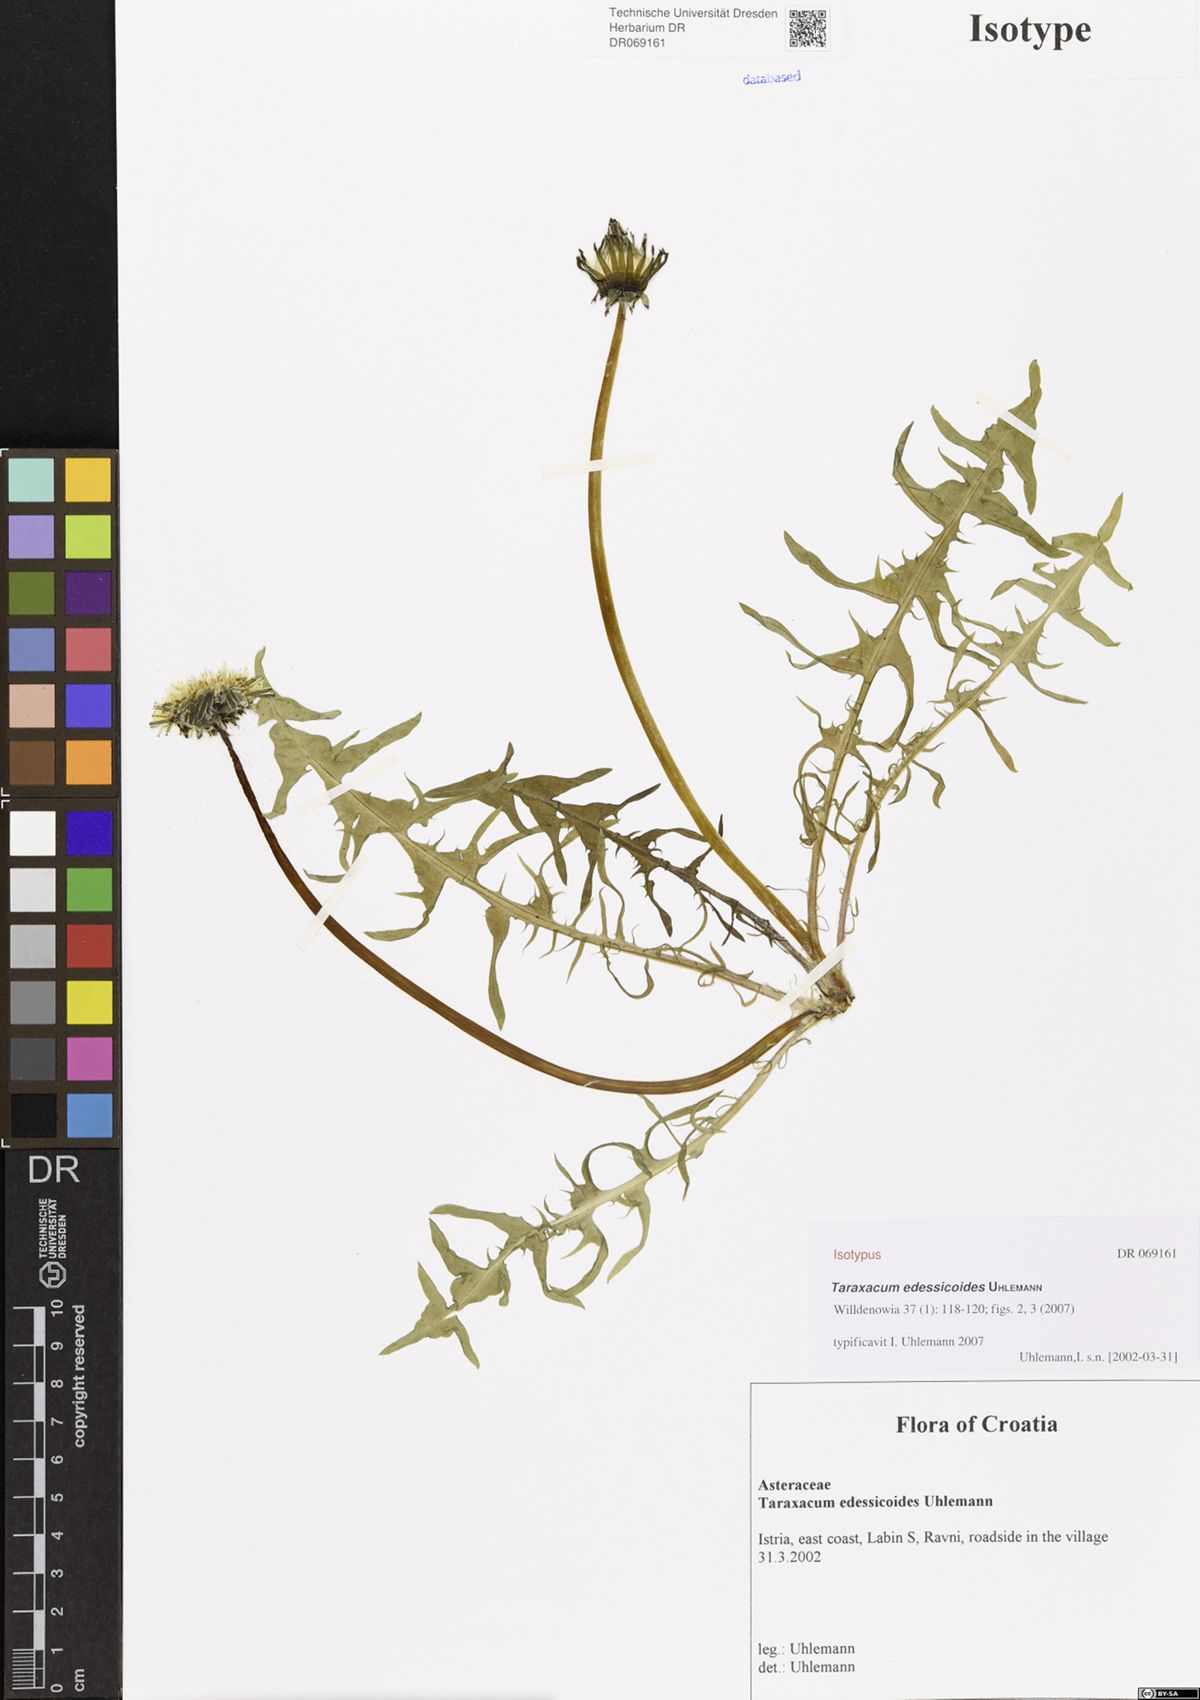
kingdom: Plantae
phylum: Tracheophyta
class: Magnoliopsida
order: Asterales
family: Asteraceae
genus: Taraxacum
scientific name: Taraxacum edessicoides
